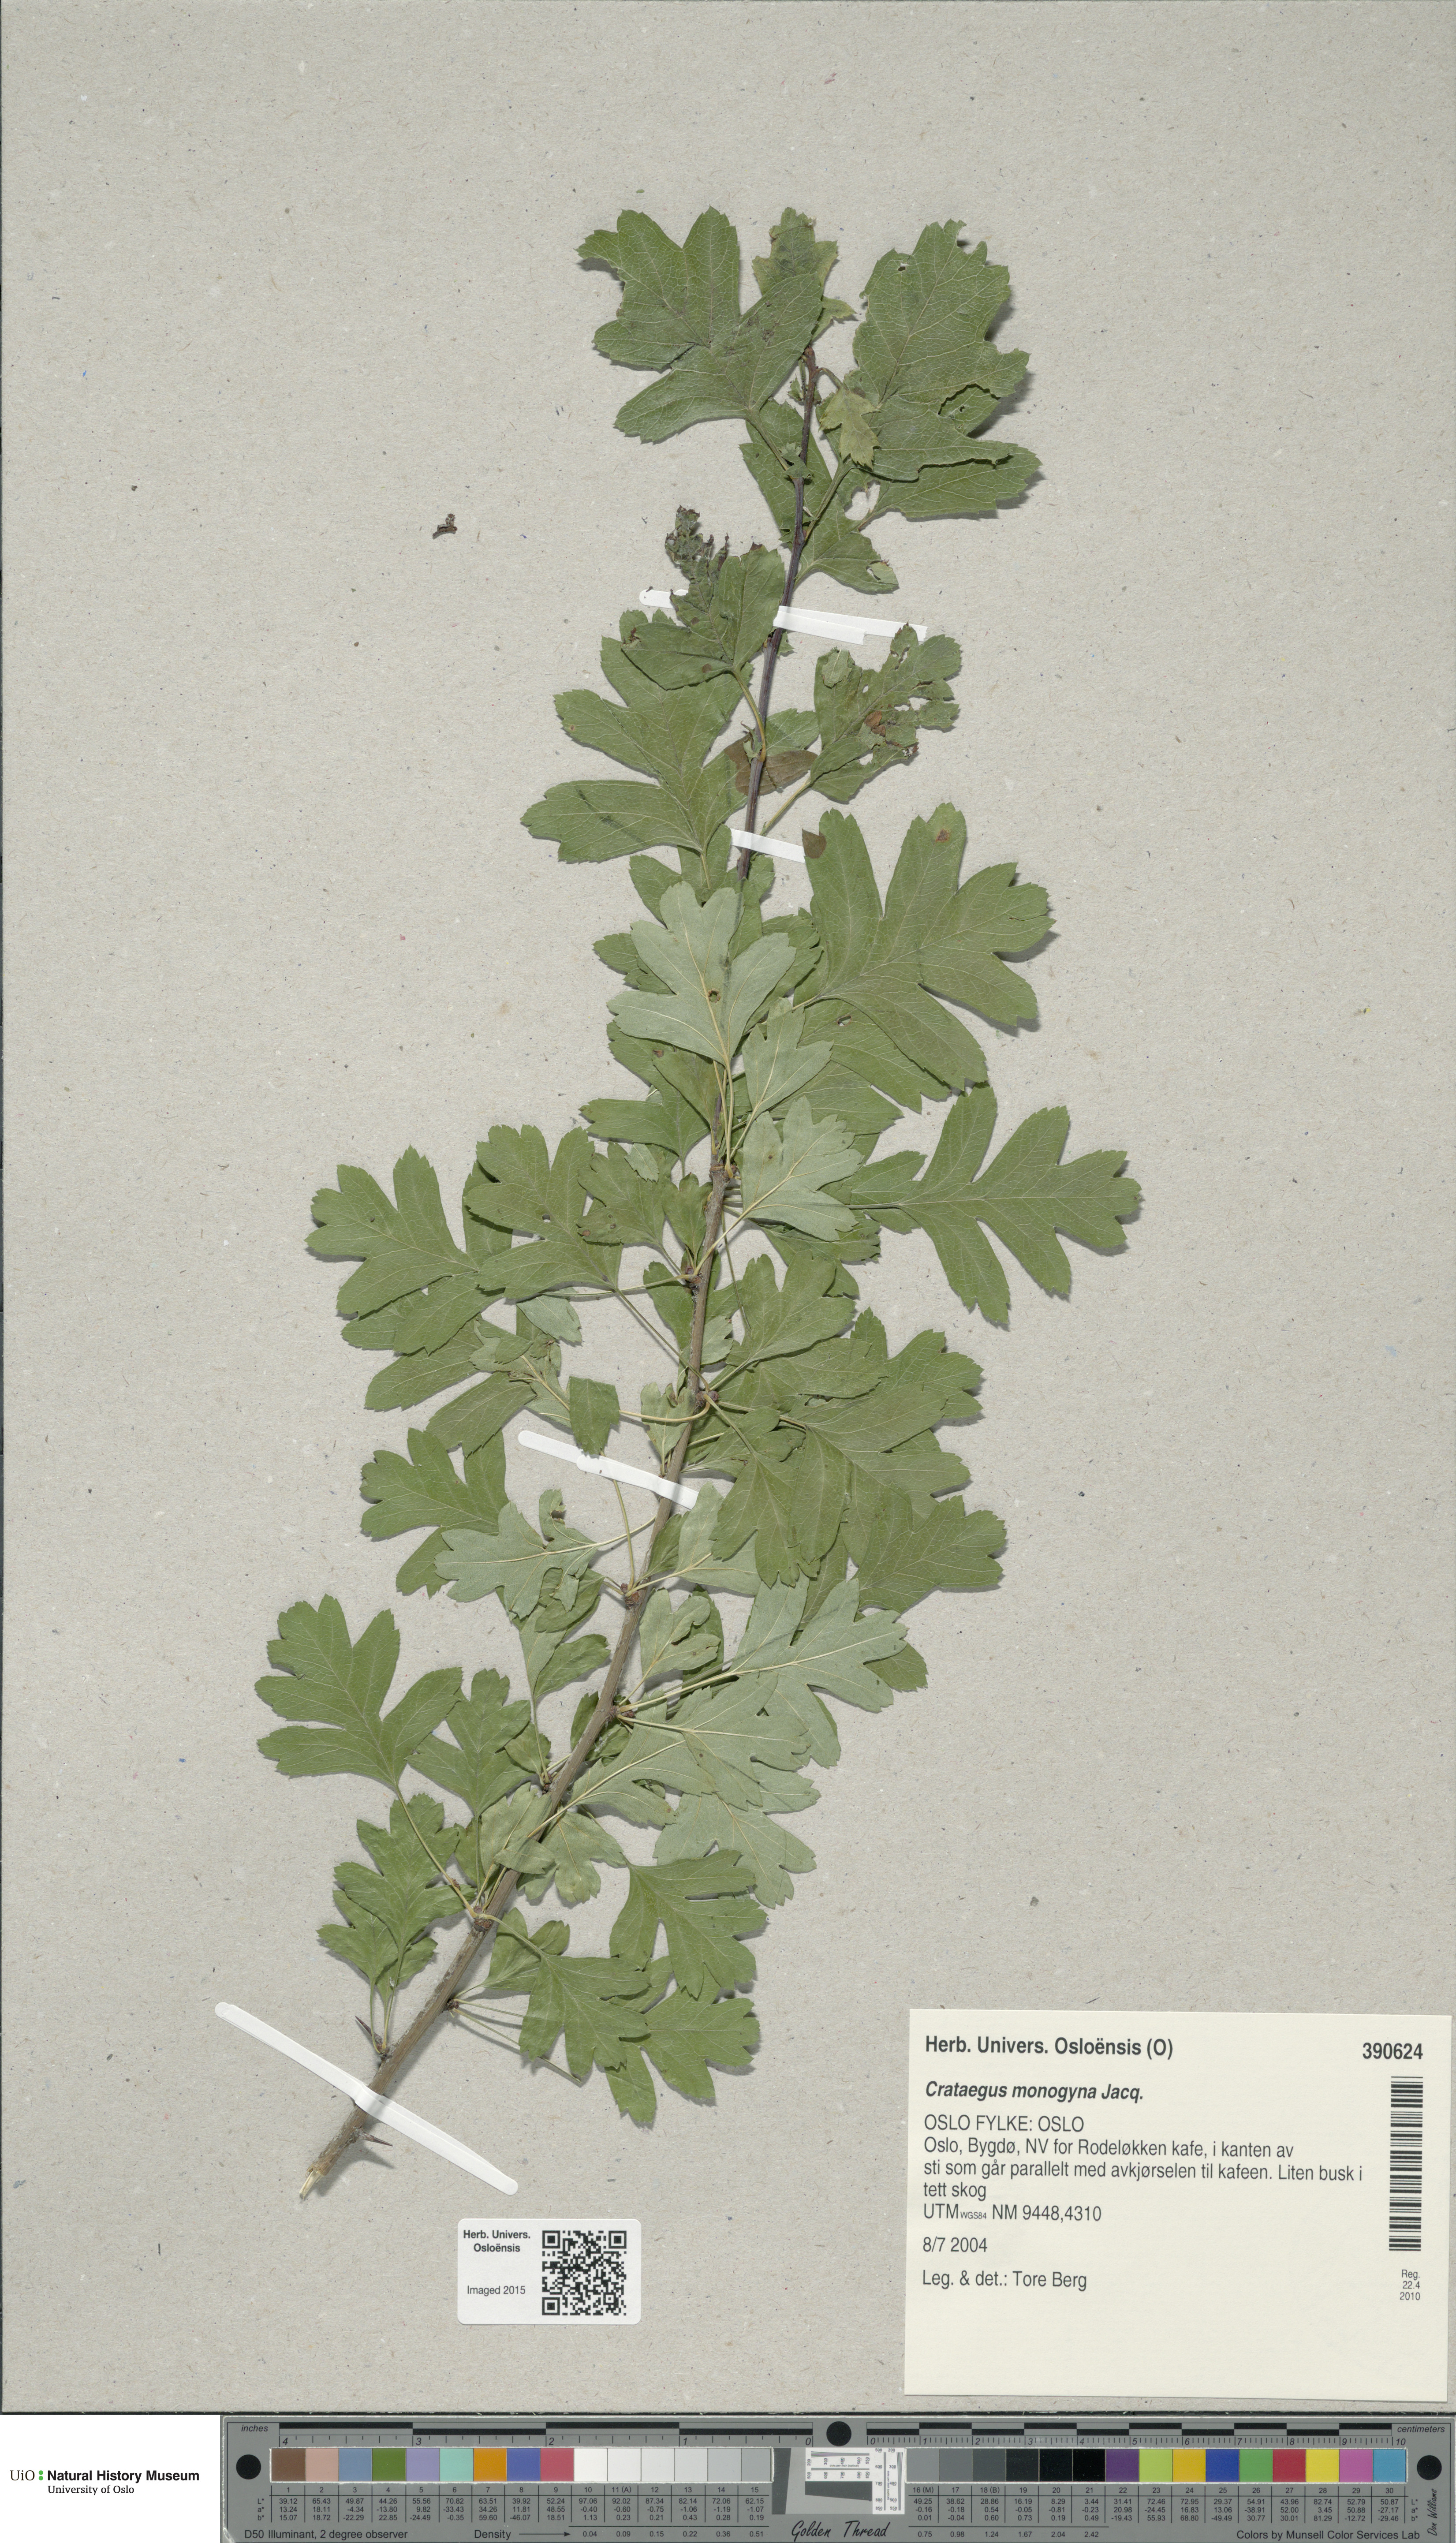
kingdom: Plantae
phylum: Tracheophyta
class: Magnoliopsida
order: Rosales
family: Rosaceae
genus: Crataegus
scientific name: Crataegus monogyna
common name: Hawthorn
